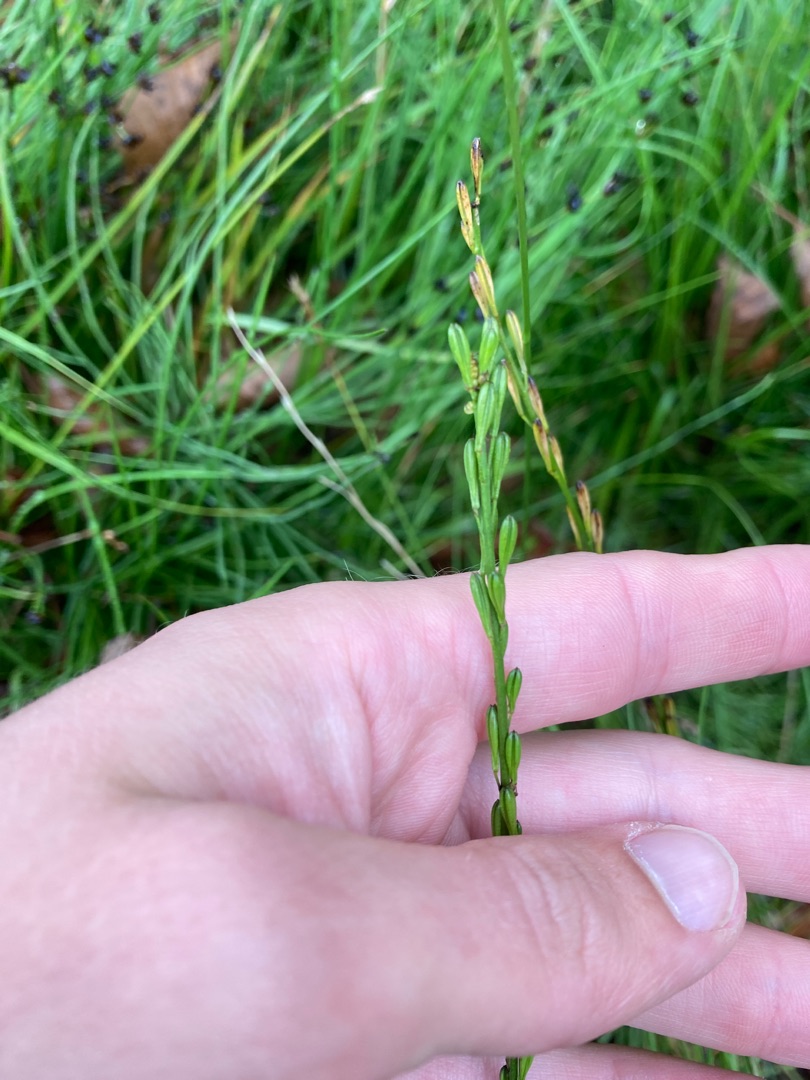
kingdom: Plantae
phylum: Tracheophyta
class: Liliopsida
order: Alismatales
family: Juncaginaceae
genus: Triglochin
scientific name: Triglochin palustris
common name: Kær-trehage
